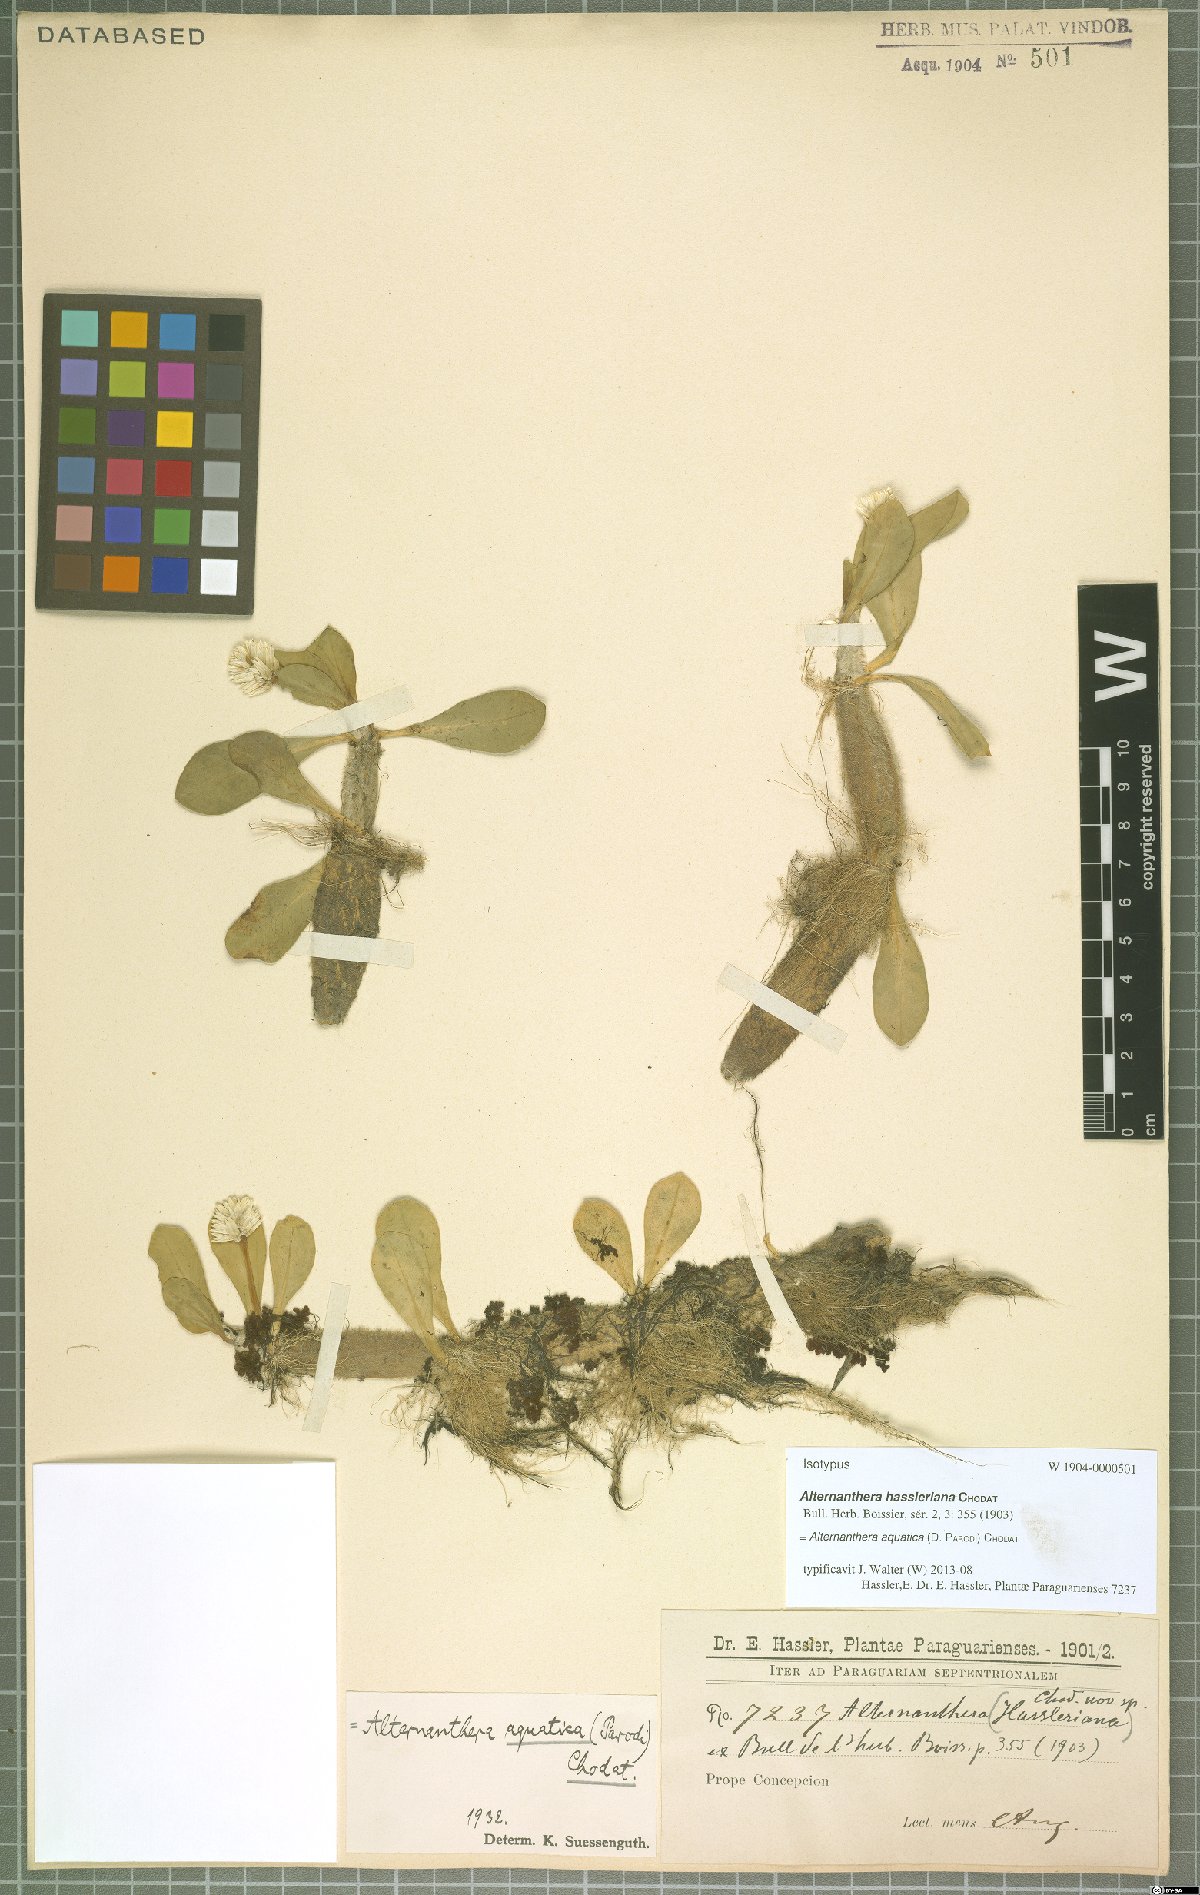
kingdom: Plantae
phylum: Tracheophyta
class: Magnoliopsida
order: Caryophyllales
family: Amaranthaceae
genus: Alternanthera
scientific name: Alternanthera aquatica
